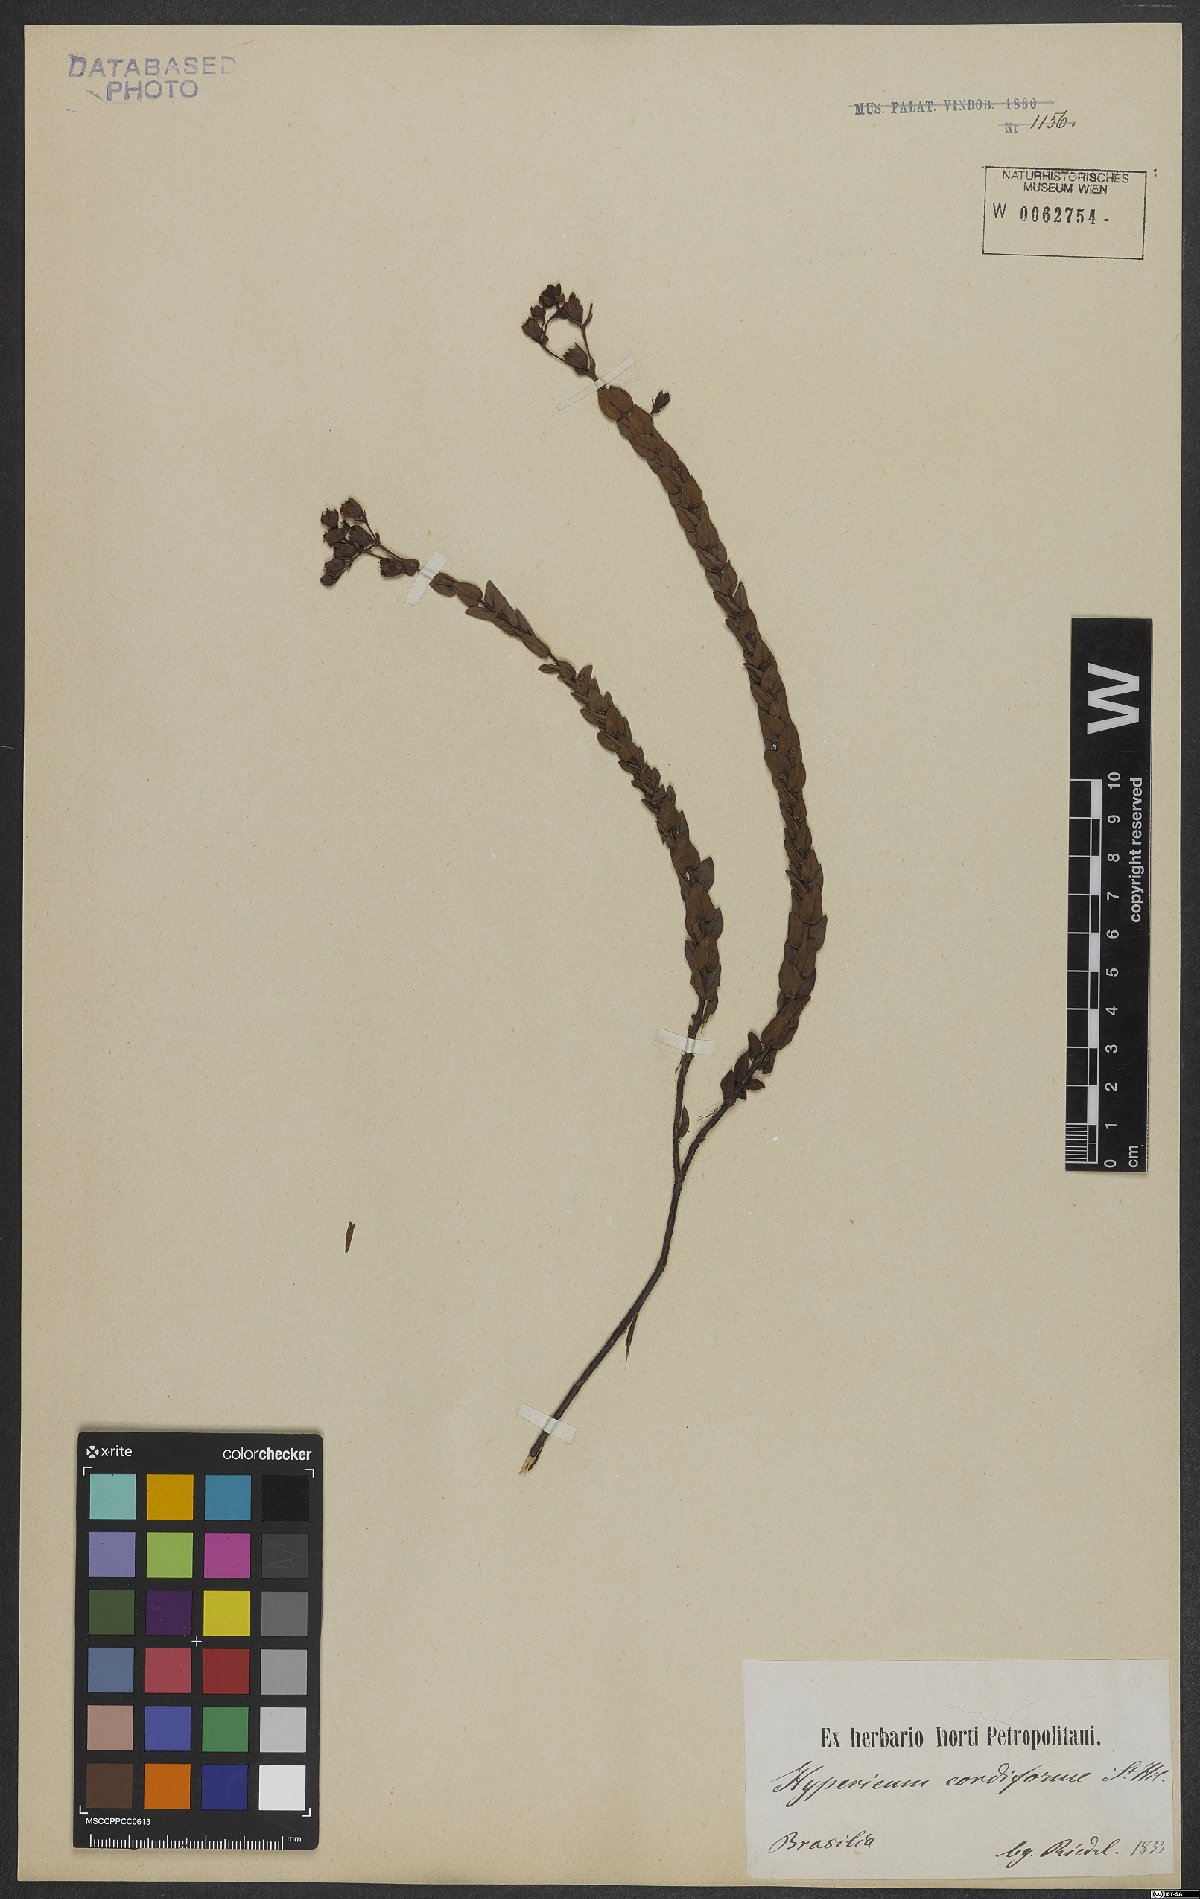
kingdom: Plantae
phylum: Tracheophyta
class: Magnoliopsida
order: Malpighiales
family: Hypericaceae
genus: Hypericum
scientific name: Hypericum cordiforme
